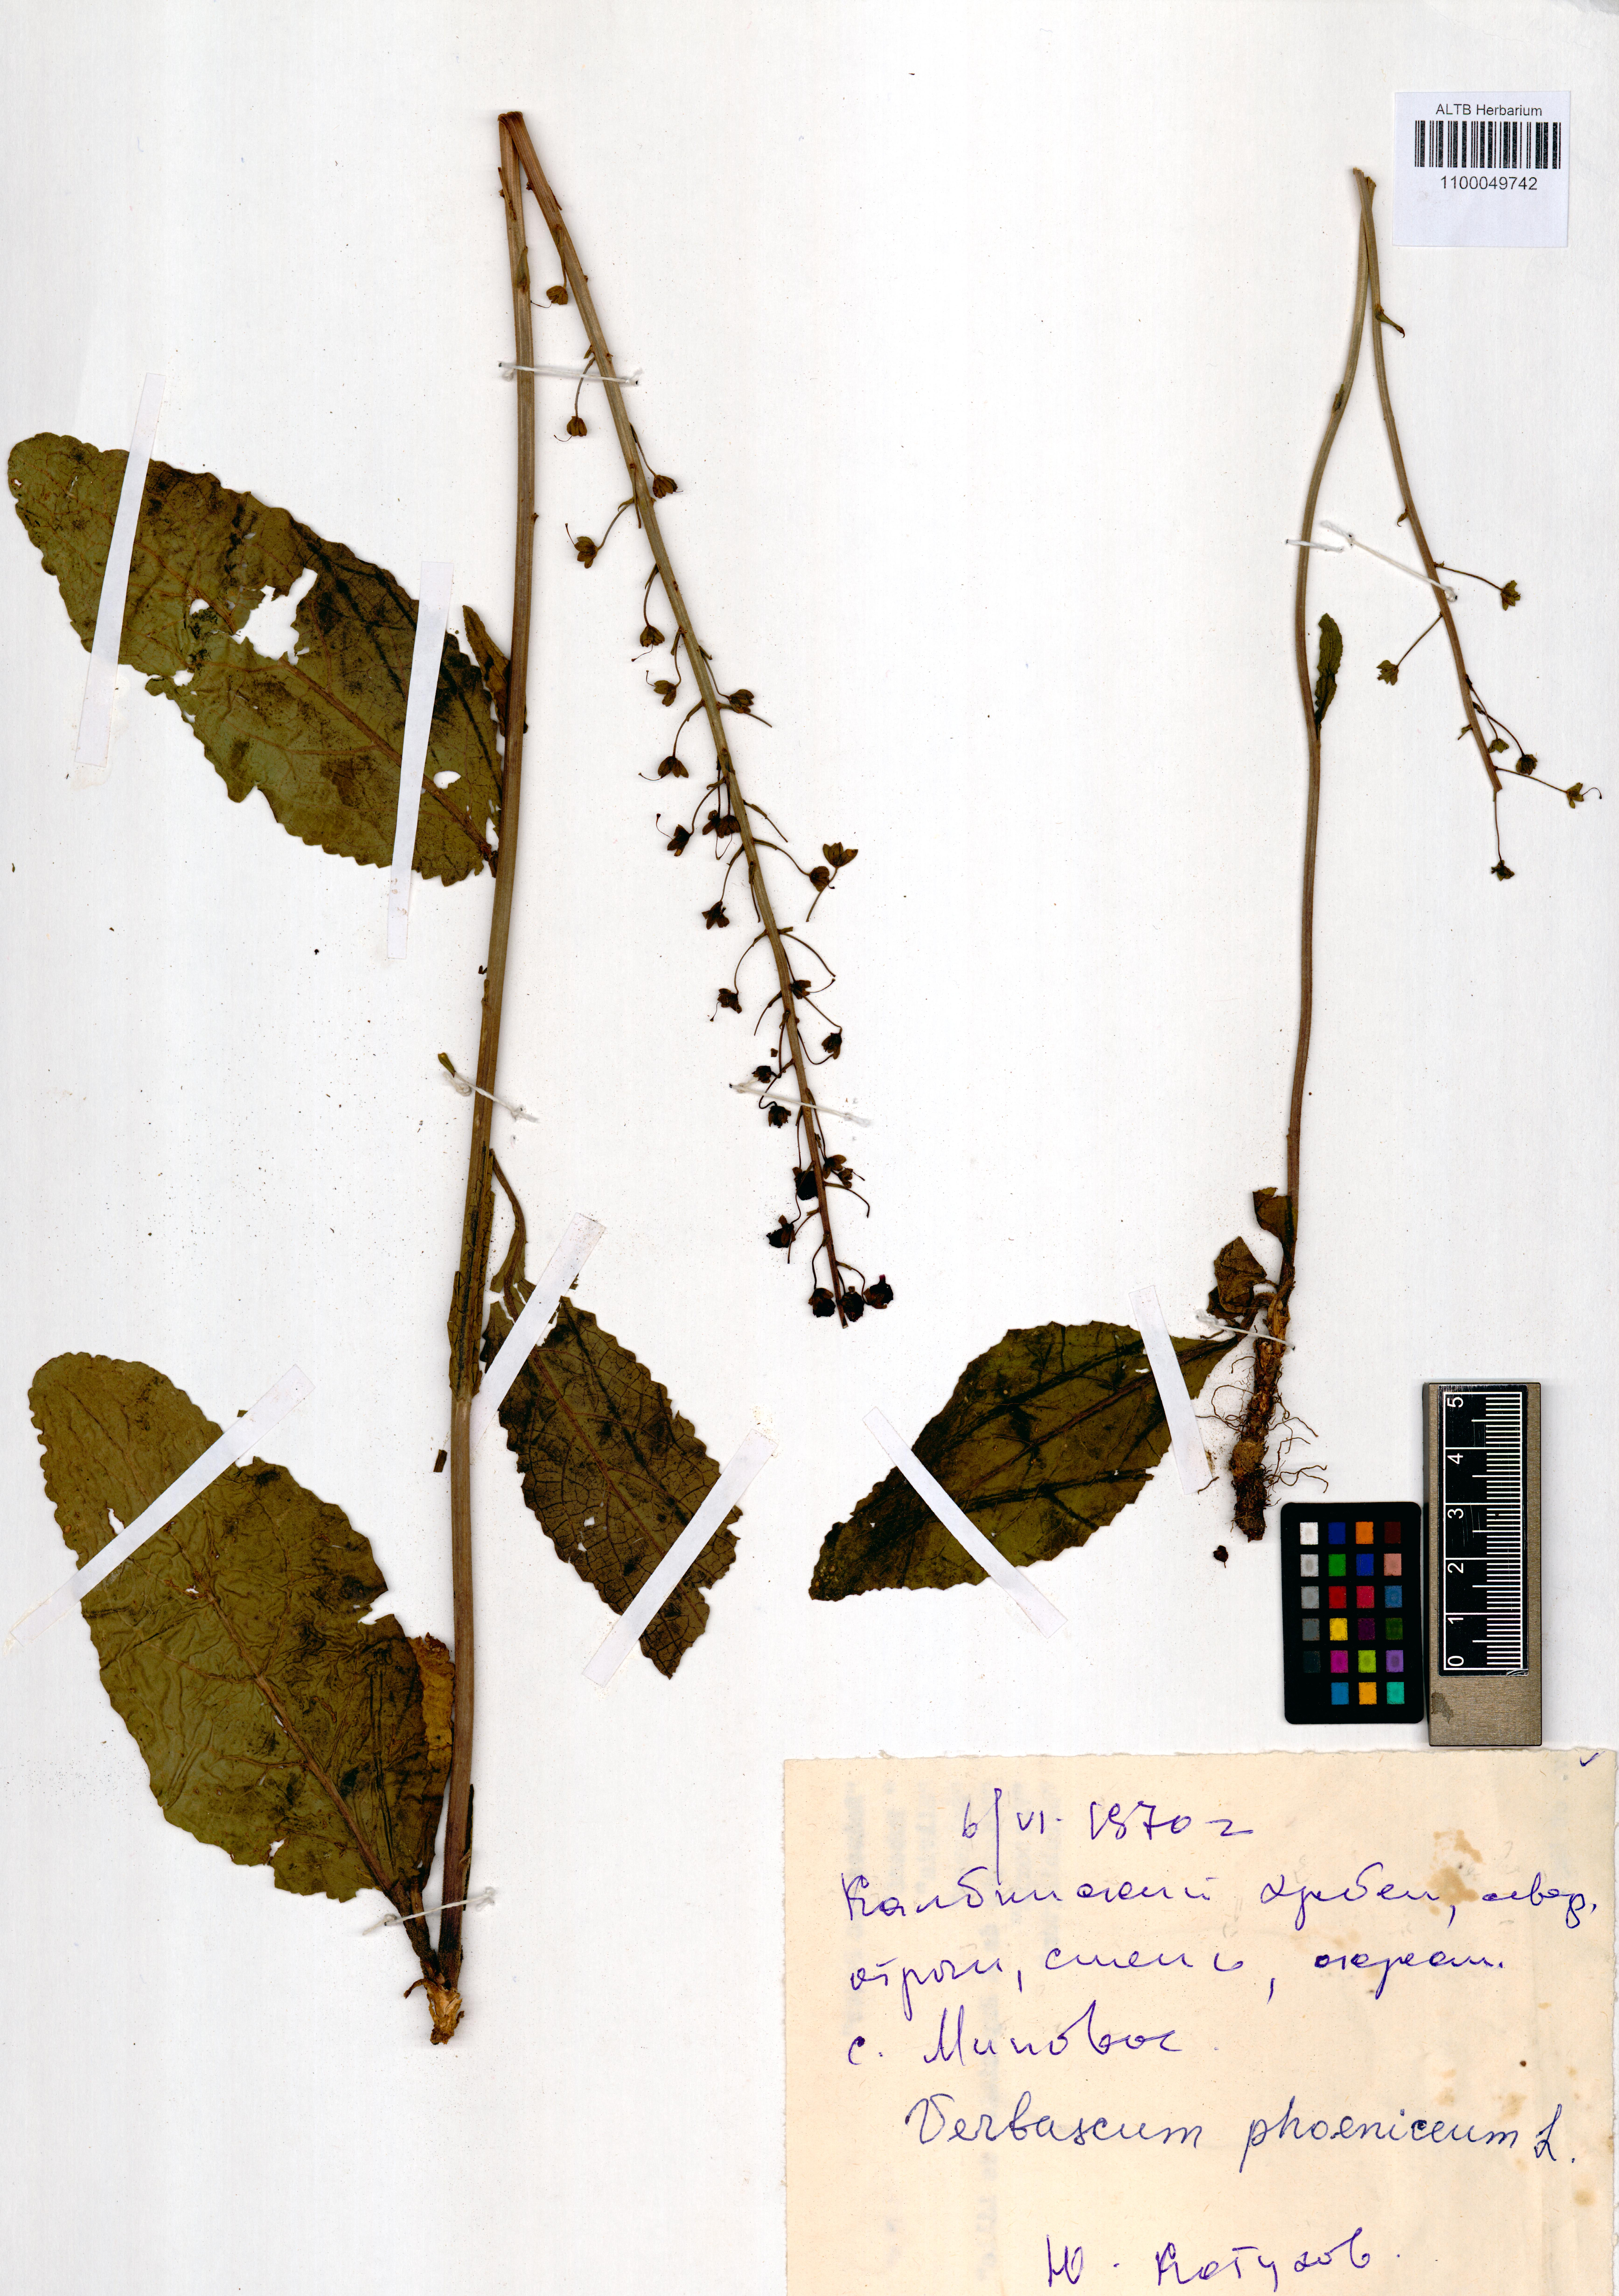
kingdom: Plantae
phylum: Tracheophyta
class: Magnoliopsida
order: Lamiales
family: Scrophulariaceae
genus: Verbascum
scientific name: Verbascum phoeniceum
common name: Purple mullein
